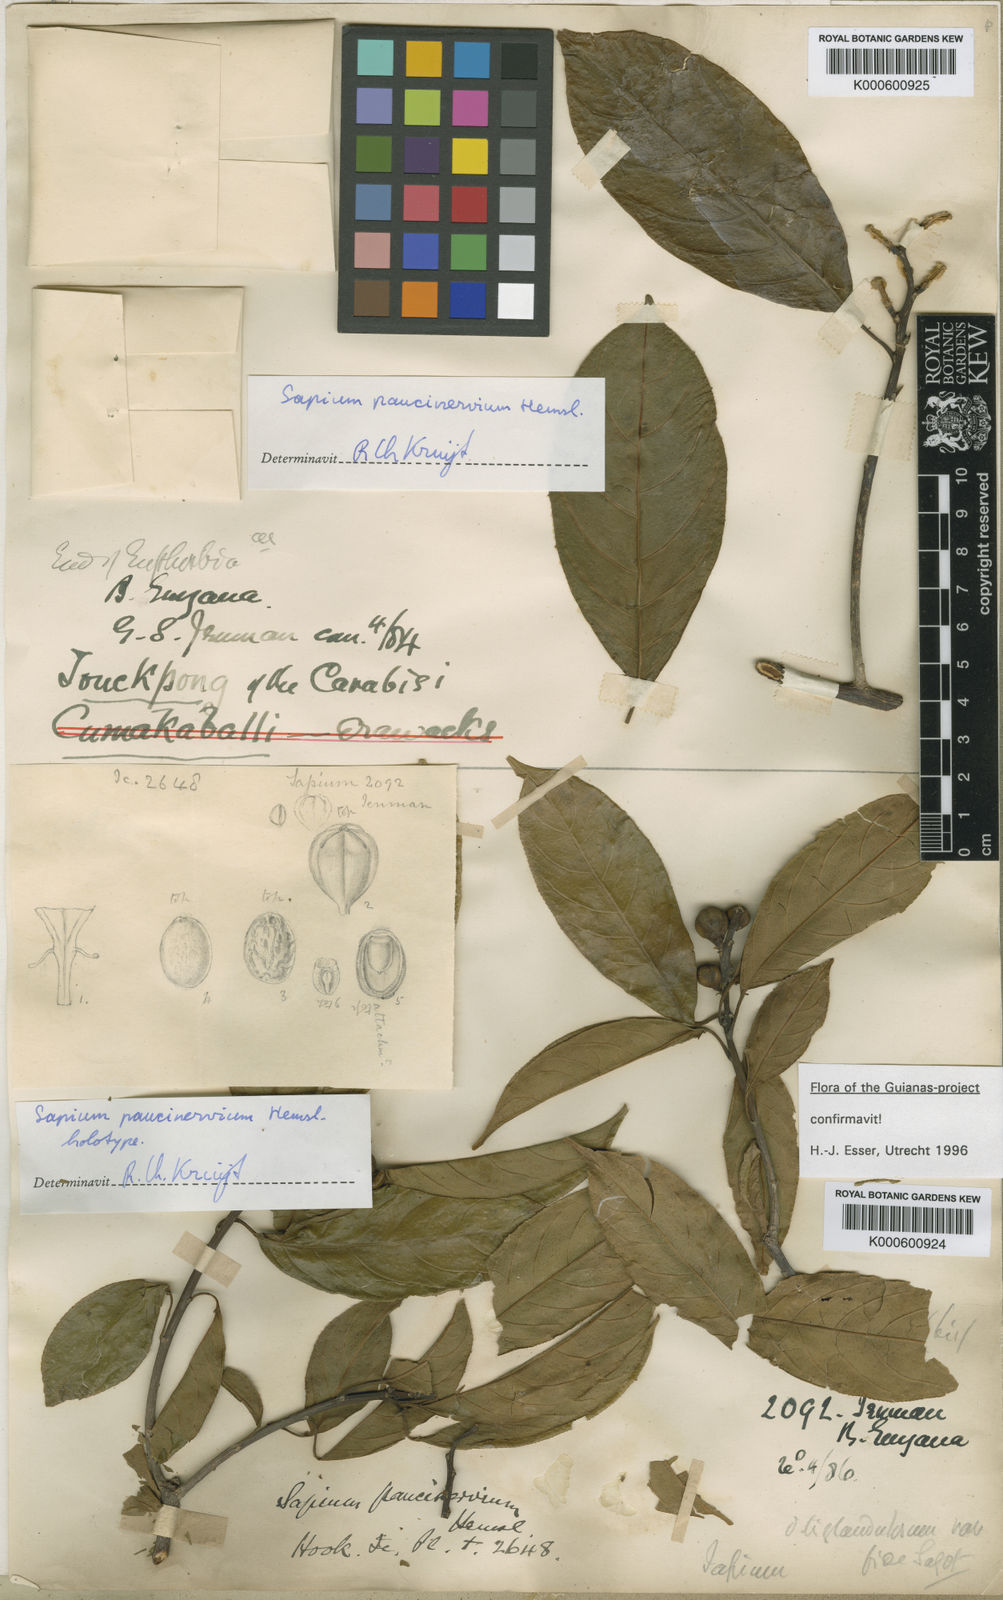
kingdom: Plantae
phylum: Tracheophyta
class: Magnoliopsida
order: Malpighiales
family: Euphorbiaceae
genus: Sapium
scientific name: Sapium paucinervium
